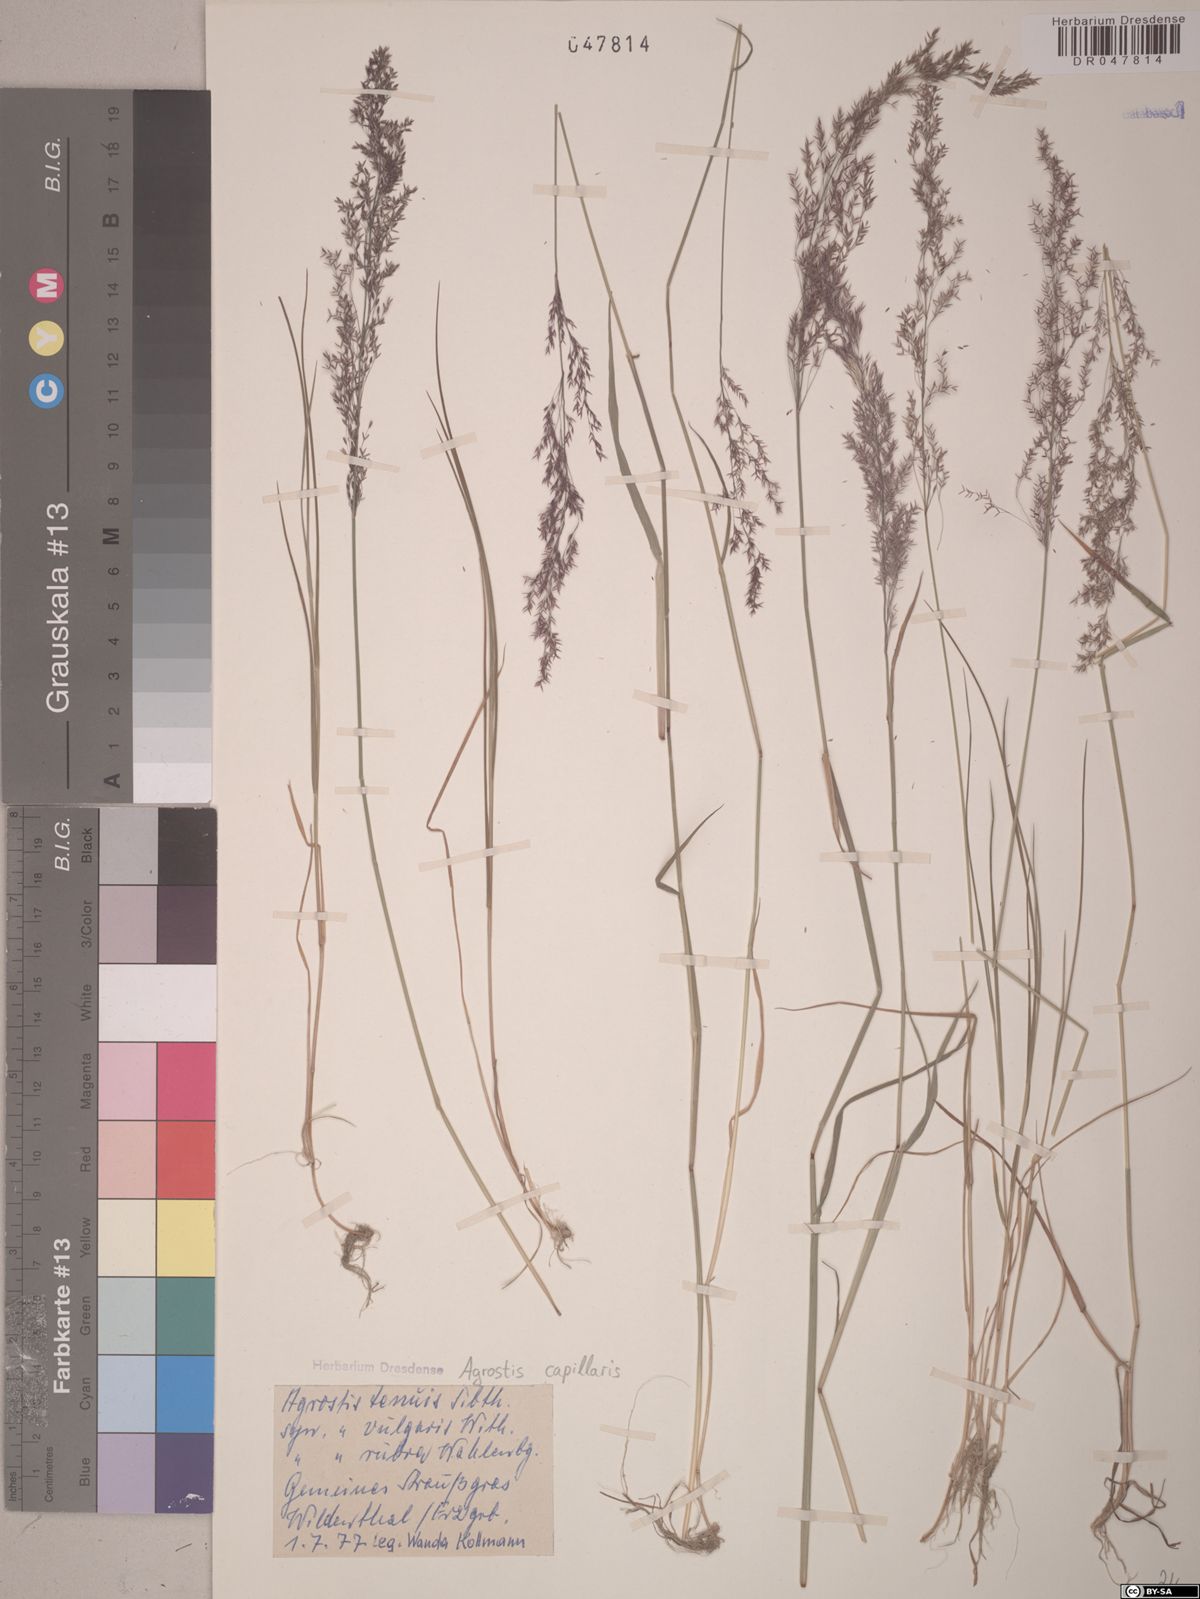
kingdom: Plantae
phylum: Tracheophyta
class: Liliopsida
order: Poales
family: Poaceae
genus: Agrostis
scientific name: Agrostis capillaris
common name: Colonial bentgrass
